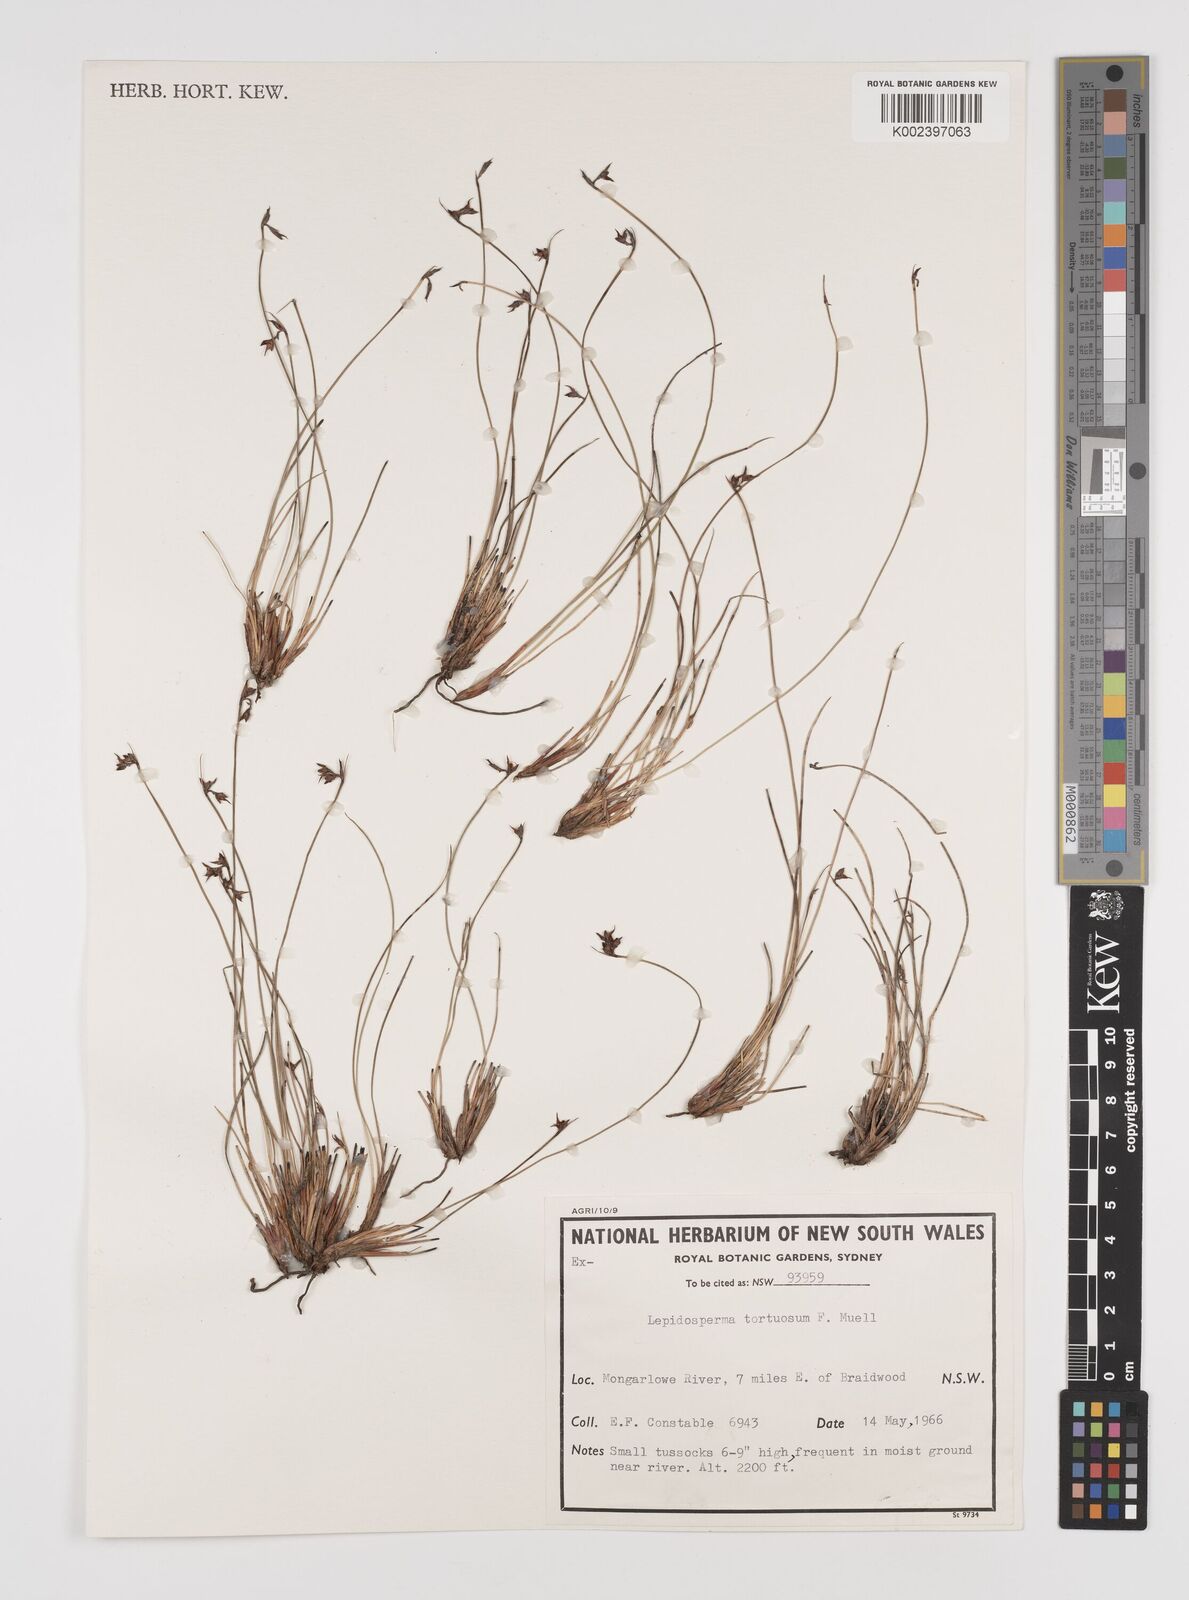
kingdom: Plantae
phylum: Tracheophyta
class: Liliopsida
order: Poales
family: Cyperaceae
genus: Lepidosperma
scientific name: Lepidosperma tortuosum
